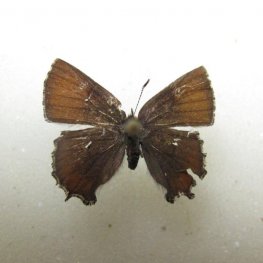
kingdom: Animalia
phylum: Arthropoda
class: Insecta
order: Lepidoptera
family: Lycaenidae
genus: Incisalia
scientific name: Incisalia henrici
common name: Henry's Elfin
